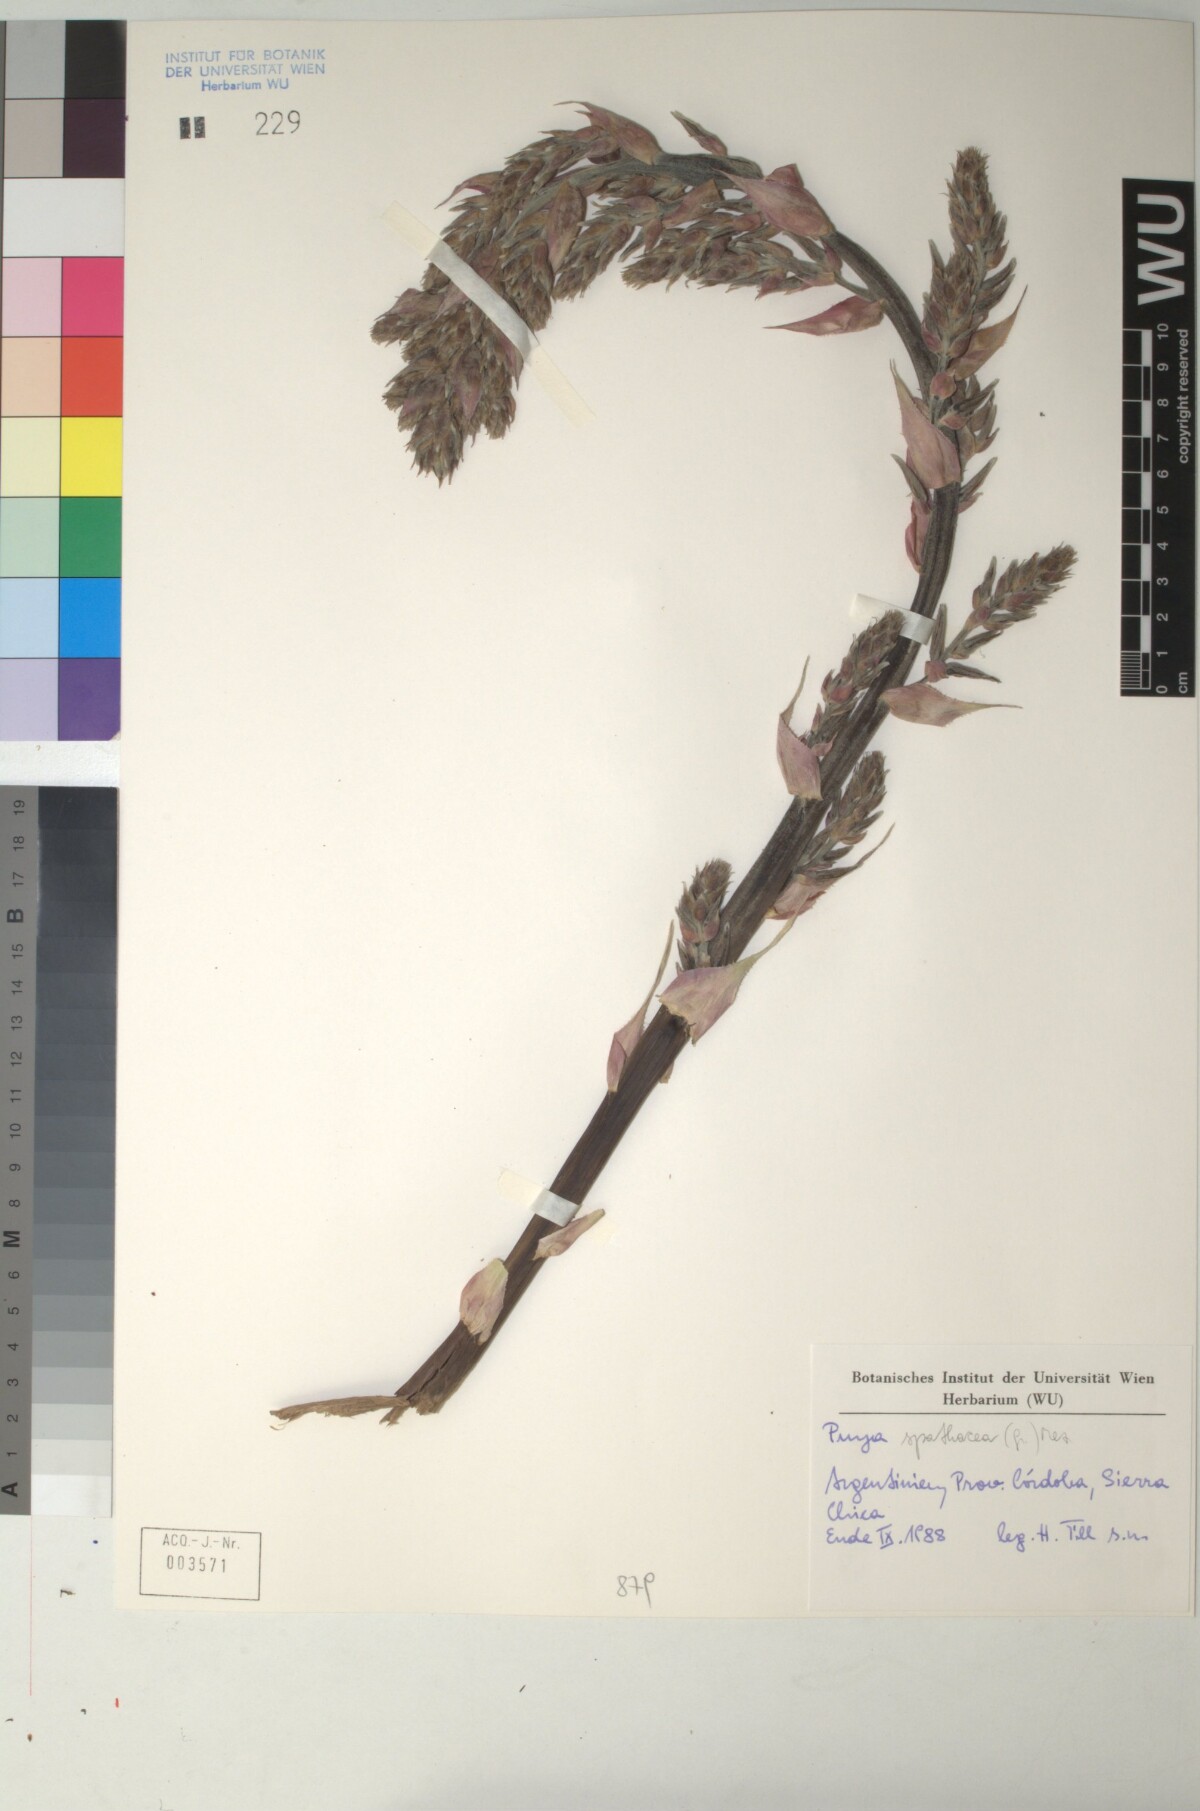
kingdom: Plantae
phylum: Tracheophyta
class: Liliopsida
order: Poales
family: Bromeliaceae
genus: Puya
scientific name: Puya spathacea
